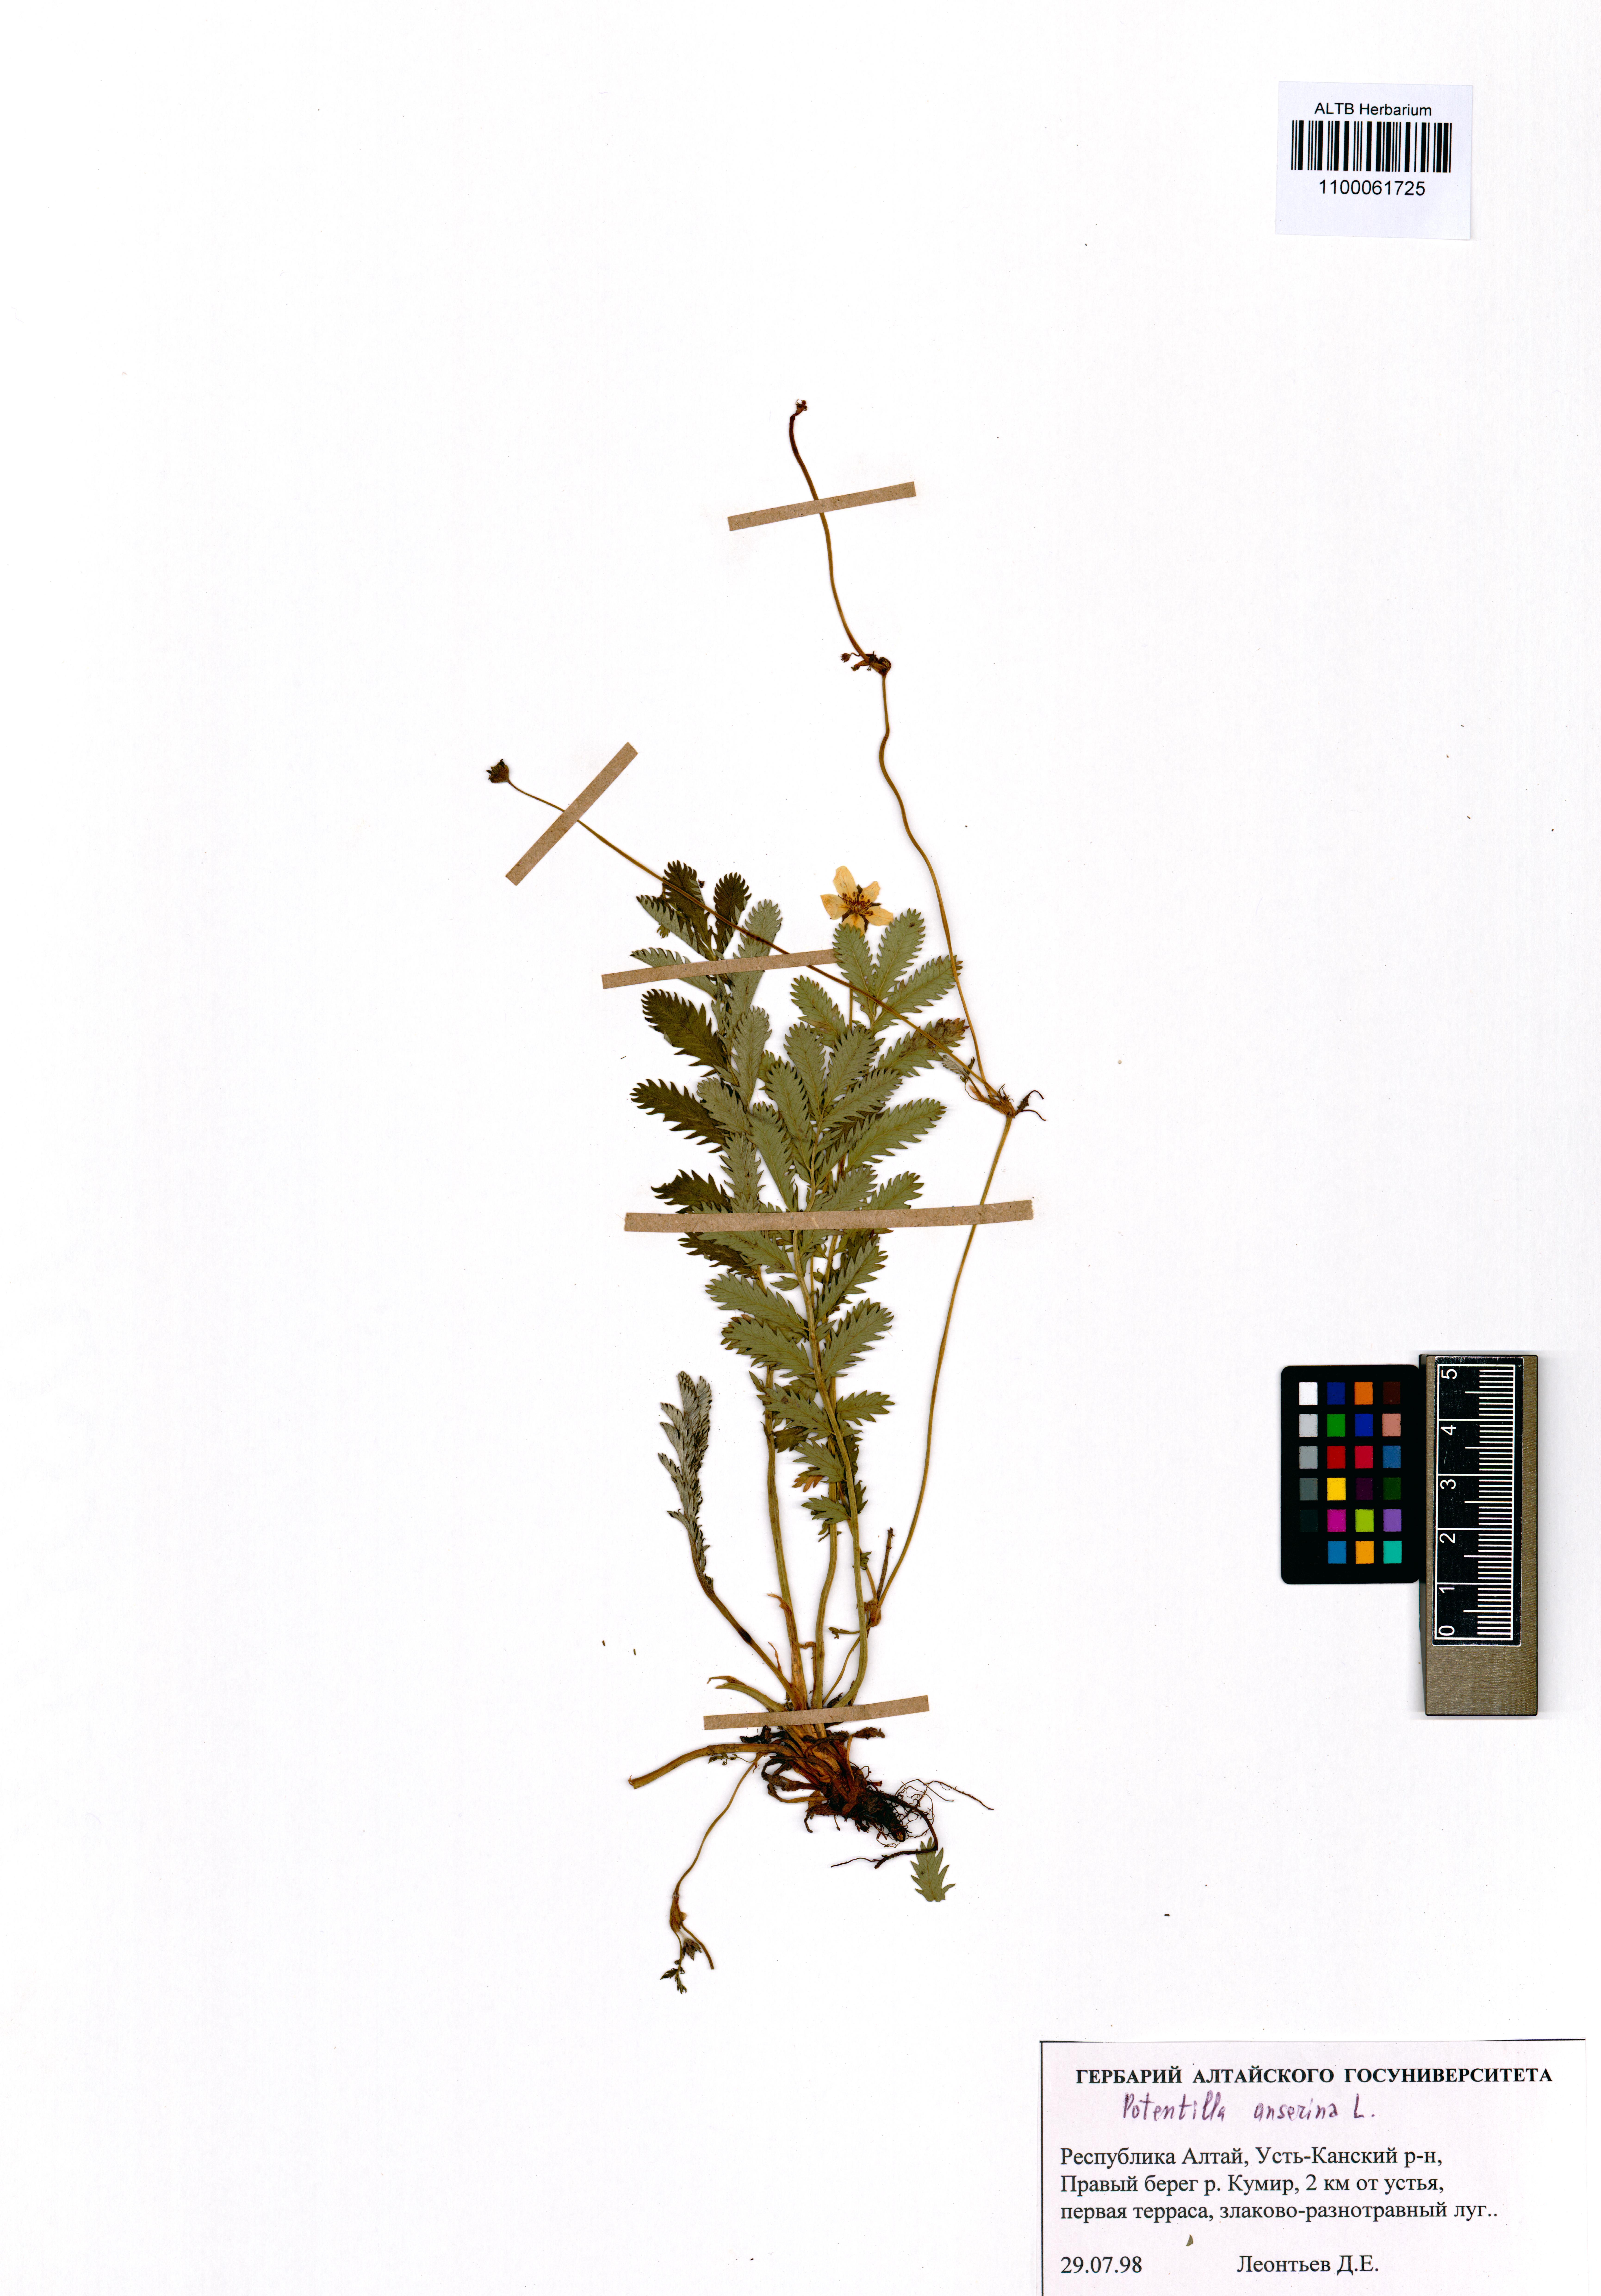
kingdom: Plantae
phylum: Tracheophyta
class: Magnoliopsida
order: Rosales
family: Rosaceae
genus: Argentina
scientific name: Argentina anserina
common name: Common silverweed
